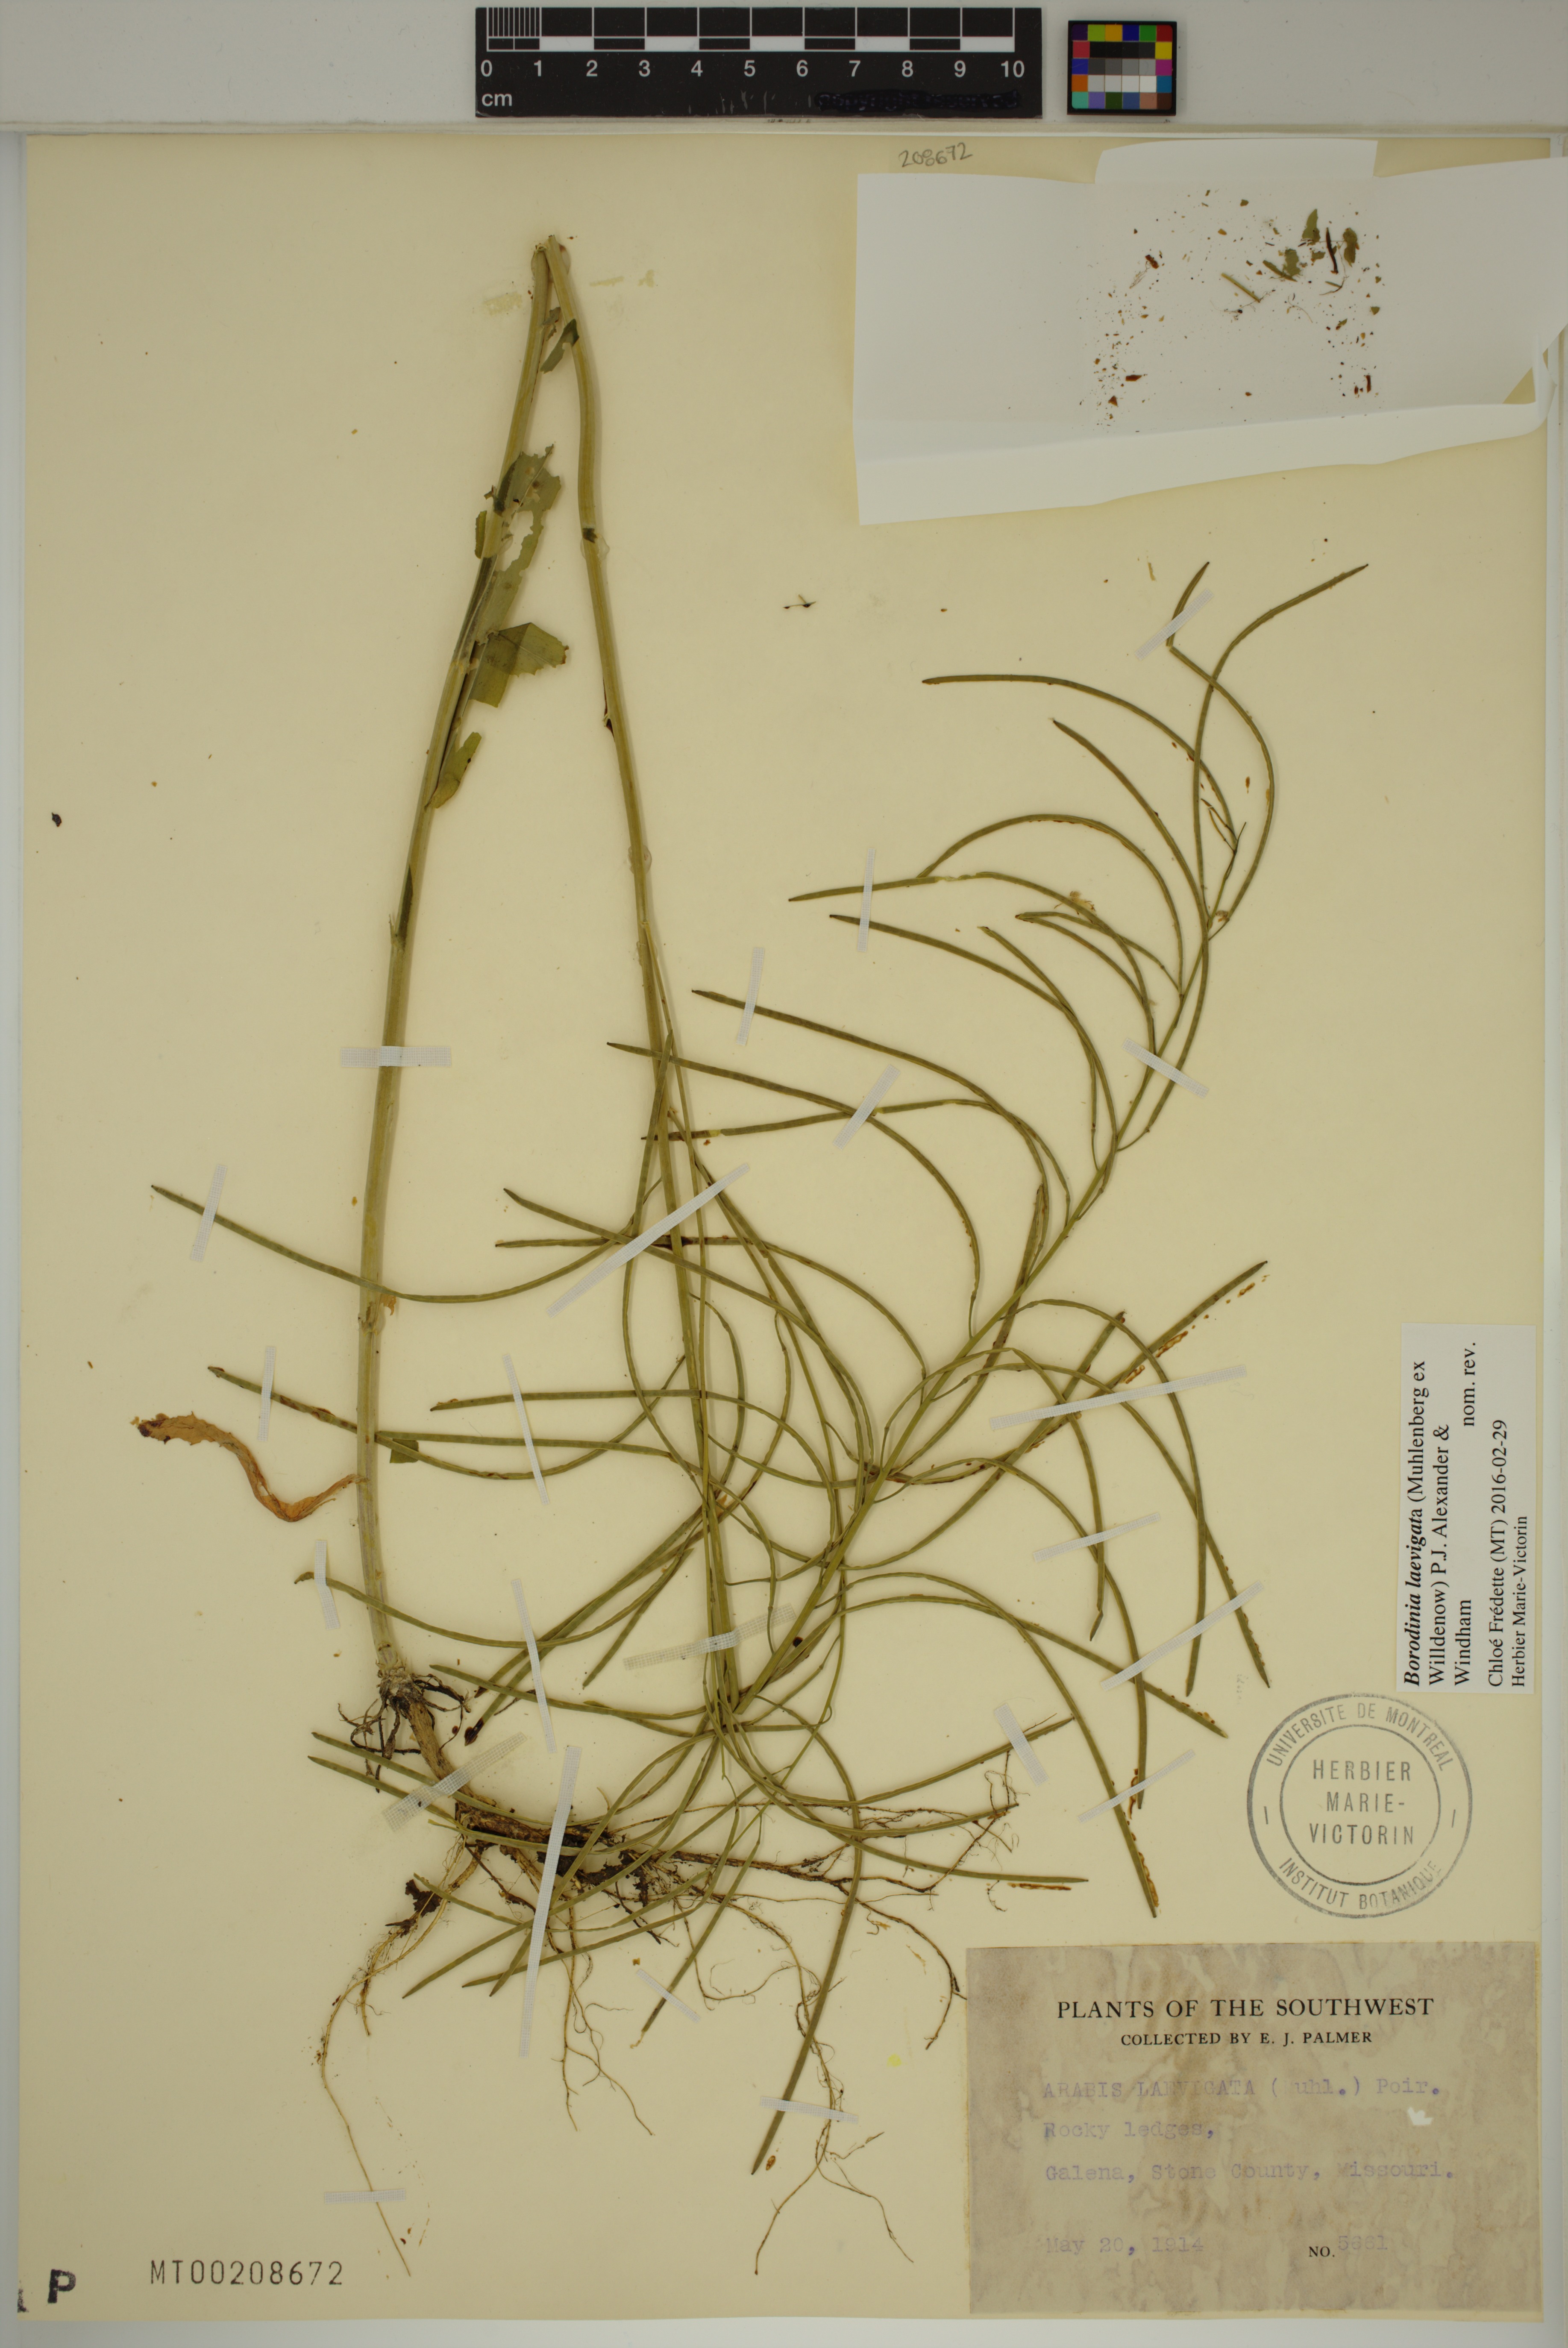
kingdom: Plantae
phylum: Tracheophyta
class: Magnoliopsida
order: Brassicales
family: Brassicaceae
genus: Borodinia
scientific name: Borodinia laevigata
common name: Smooth rockcress
